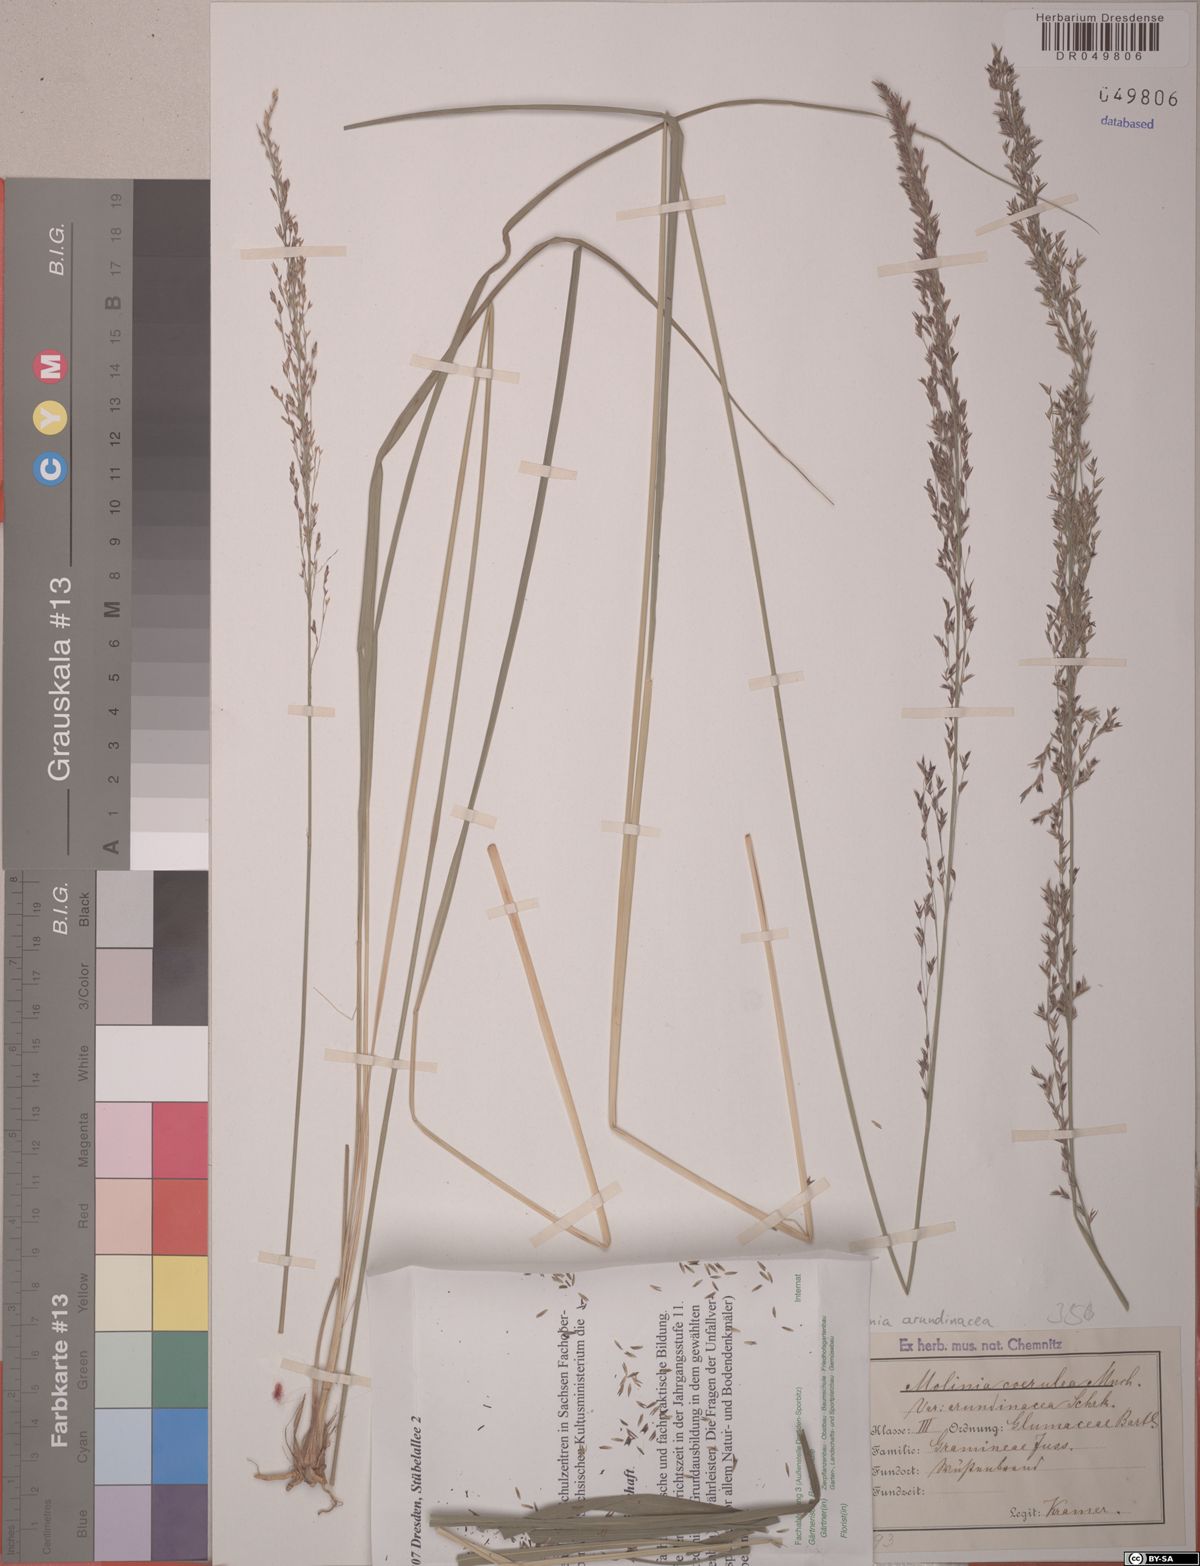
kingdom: Plantae
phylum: Tracheophyta
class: Liliopsida
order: Poales
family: Poaceae
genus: Molinia
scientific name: Molinia arundinacea
